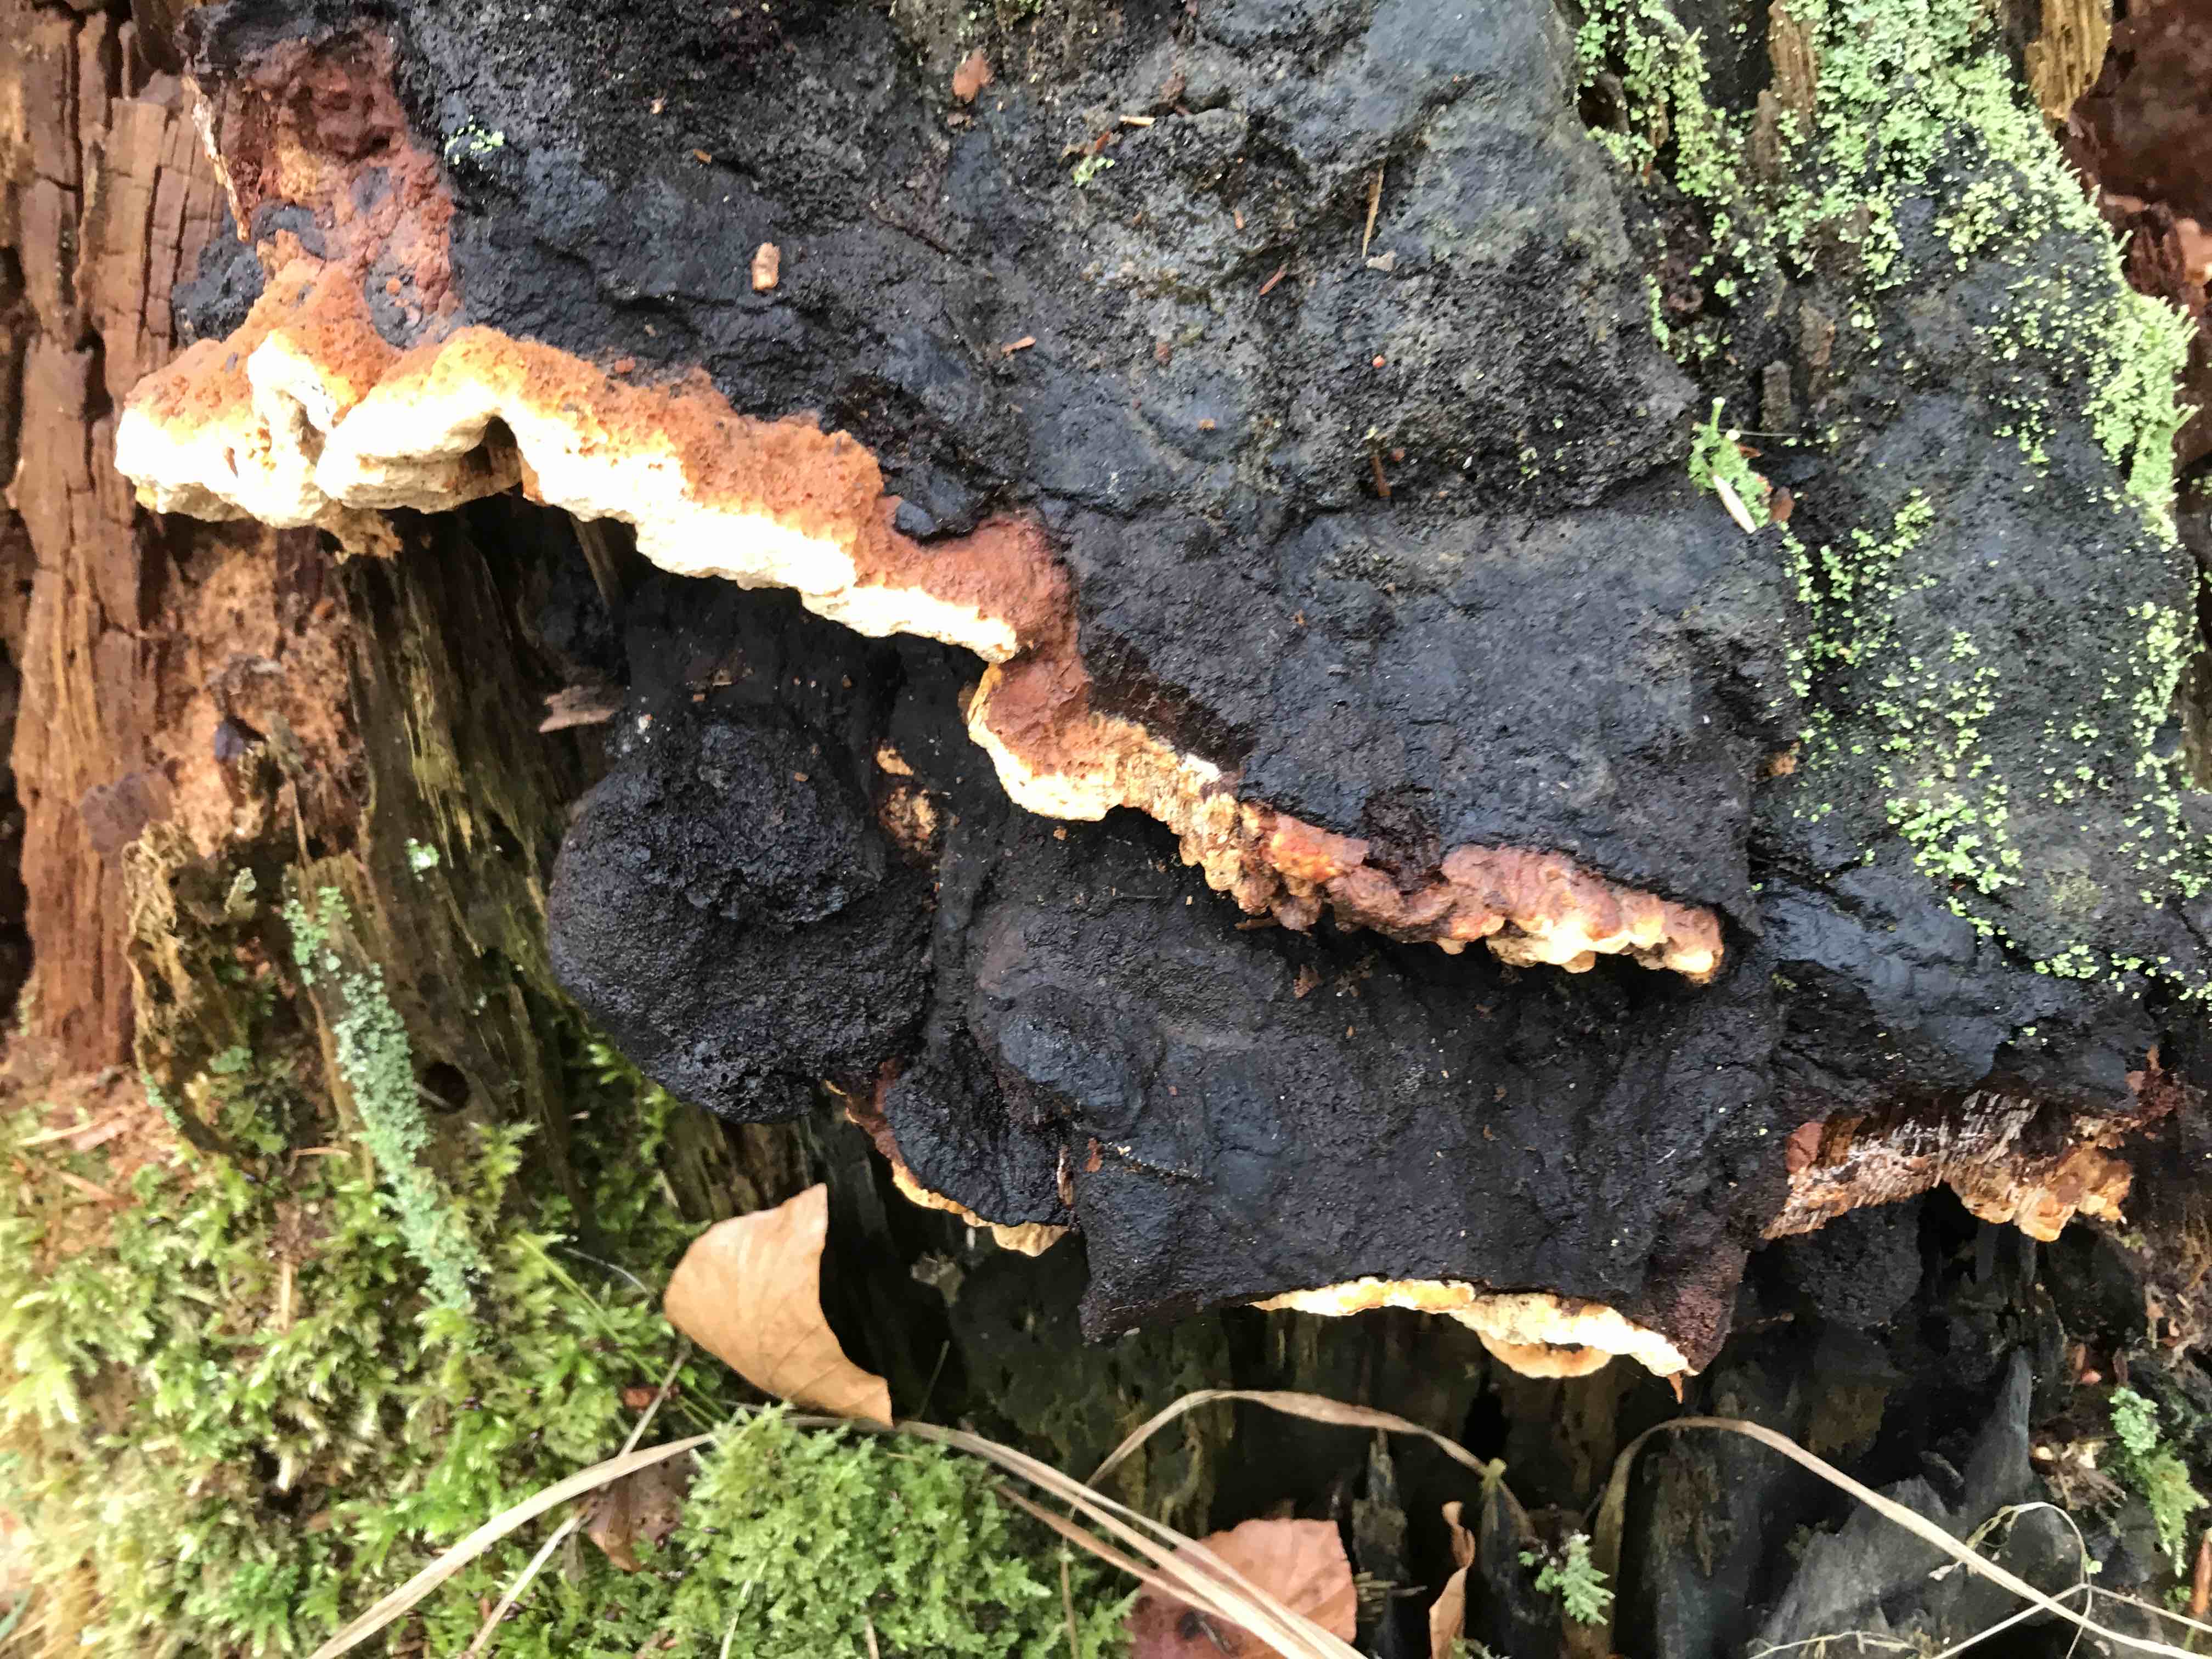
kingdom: Fungi
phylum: Basidiomycota
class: Agaricomycetes
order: Gloeophyllales
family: Gloeophyllaceae
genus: Gloeophyllum
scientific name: Gloeophyllum odoratum
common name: duftende korkhat
